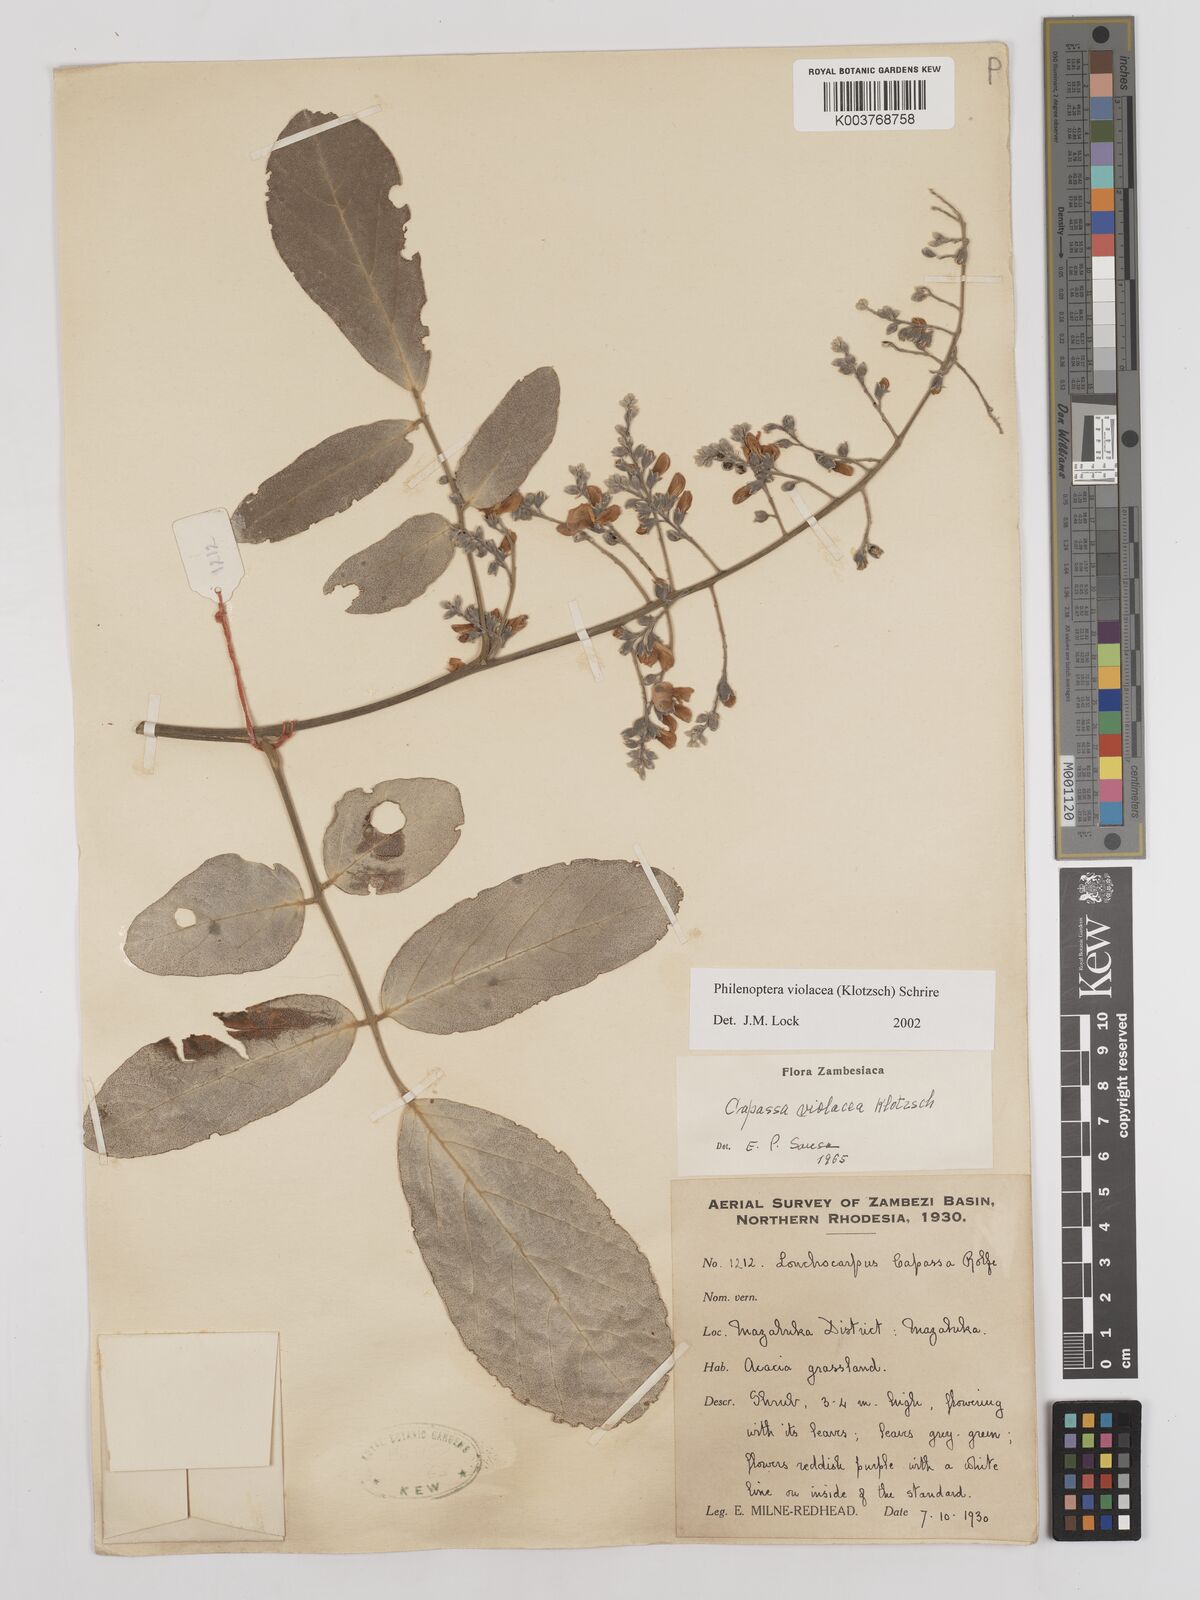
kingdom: Plantae
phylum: Tracheophyta
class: Magnoliopsida
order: Fabales
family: Fabaceae
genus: Philenoptera
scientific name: Philenoptera violacea
